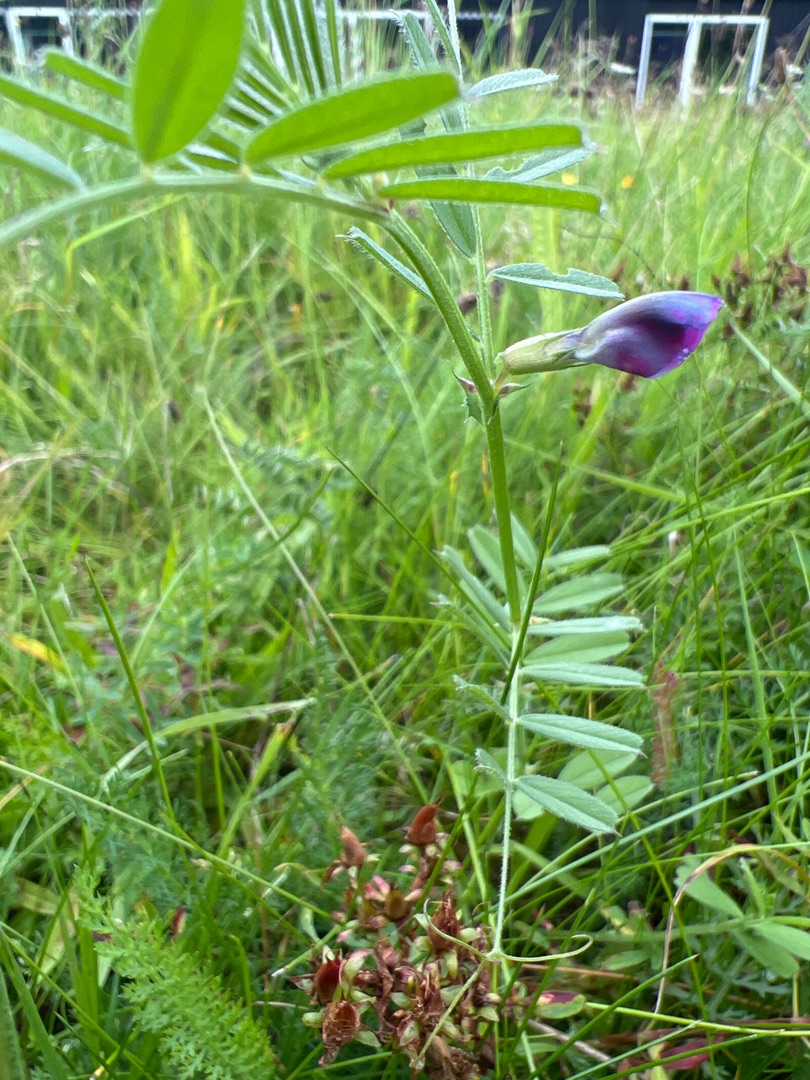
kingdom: Plantae
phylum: Tracheophyta
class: Magnoliopsida
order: Fabales
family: Fabaceae
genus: Vicia
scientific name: Vicia sativa
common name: Foder-vikke
